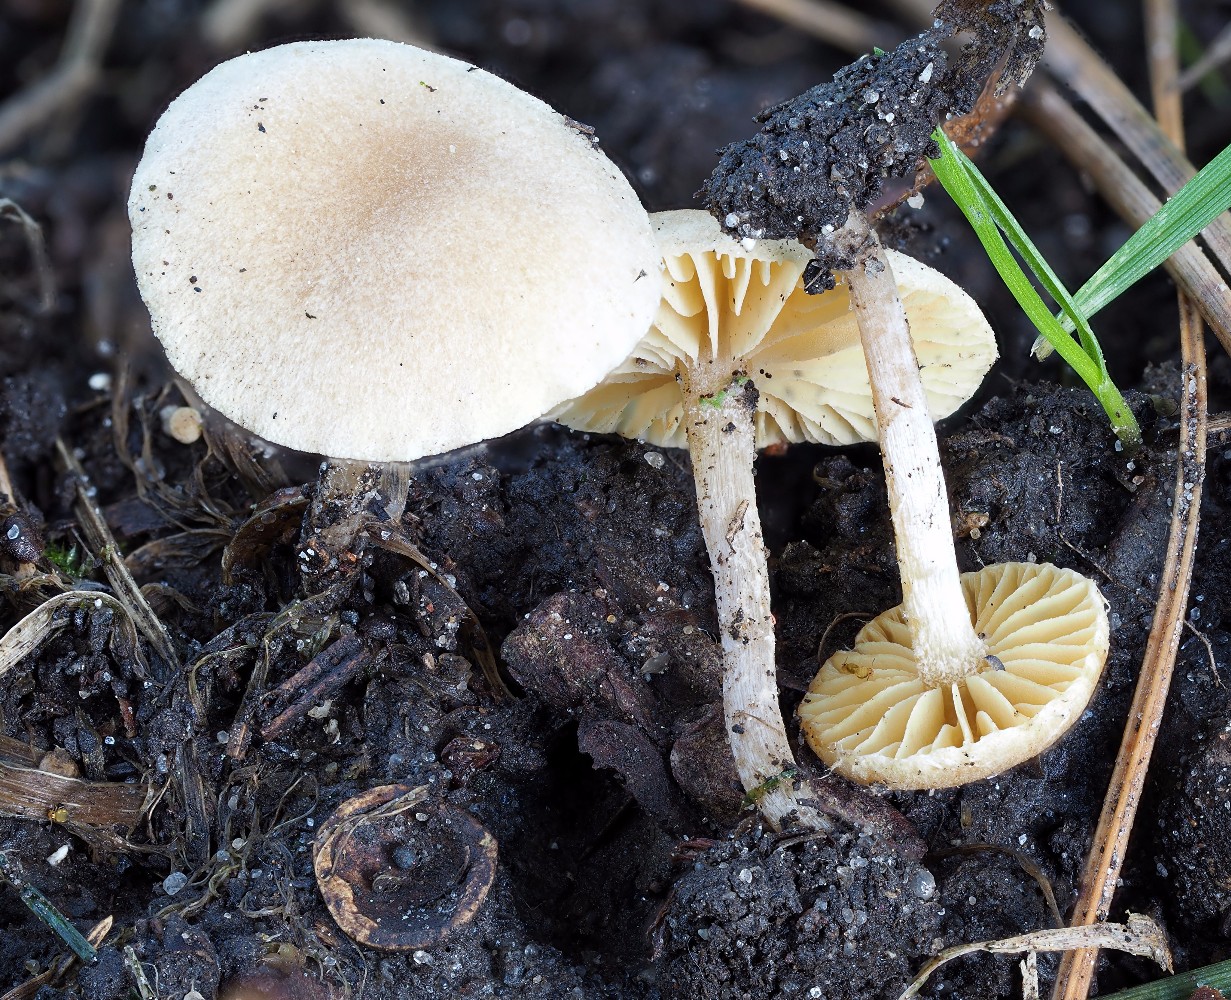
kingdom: Fungi
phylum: Basidiomycota
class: Agaricomycetes
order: Agaricales
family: Tubariaceae
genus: Tubaria
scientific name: Tubaria dispersa
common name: tjørne-fnughat
